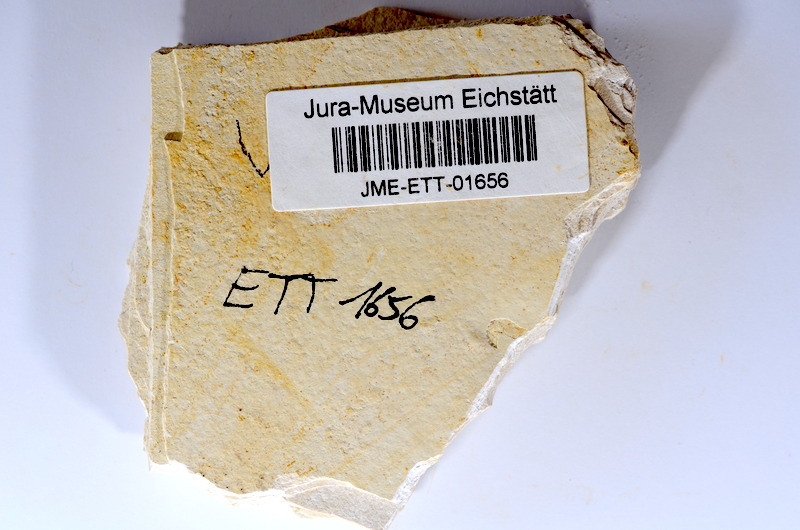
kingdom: Animalia
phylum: Chordata
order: Salmoniformes
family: Orthogonikleithridae
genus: Orthogonikleithrus
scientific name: Orthogonikleithrus hoelli
